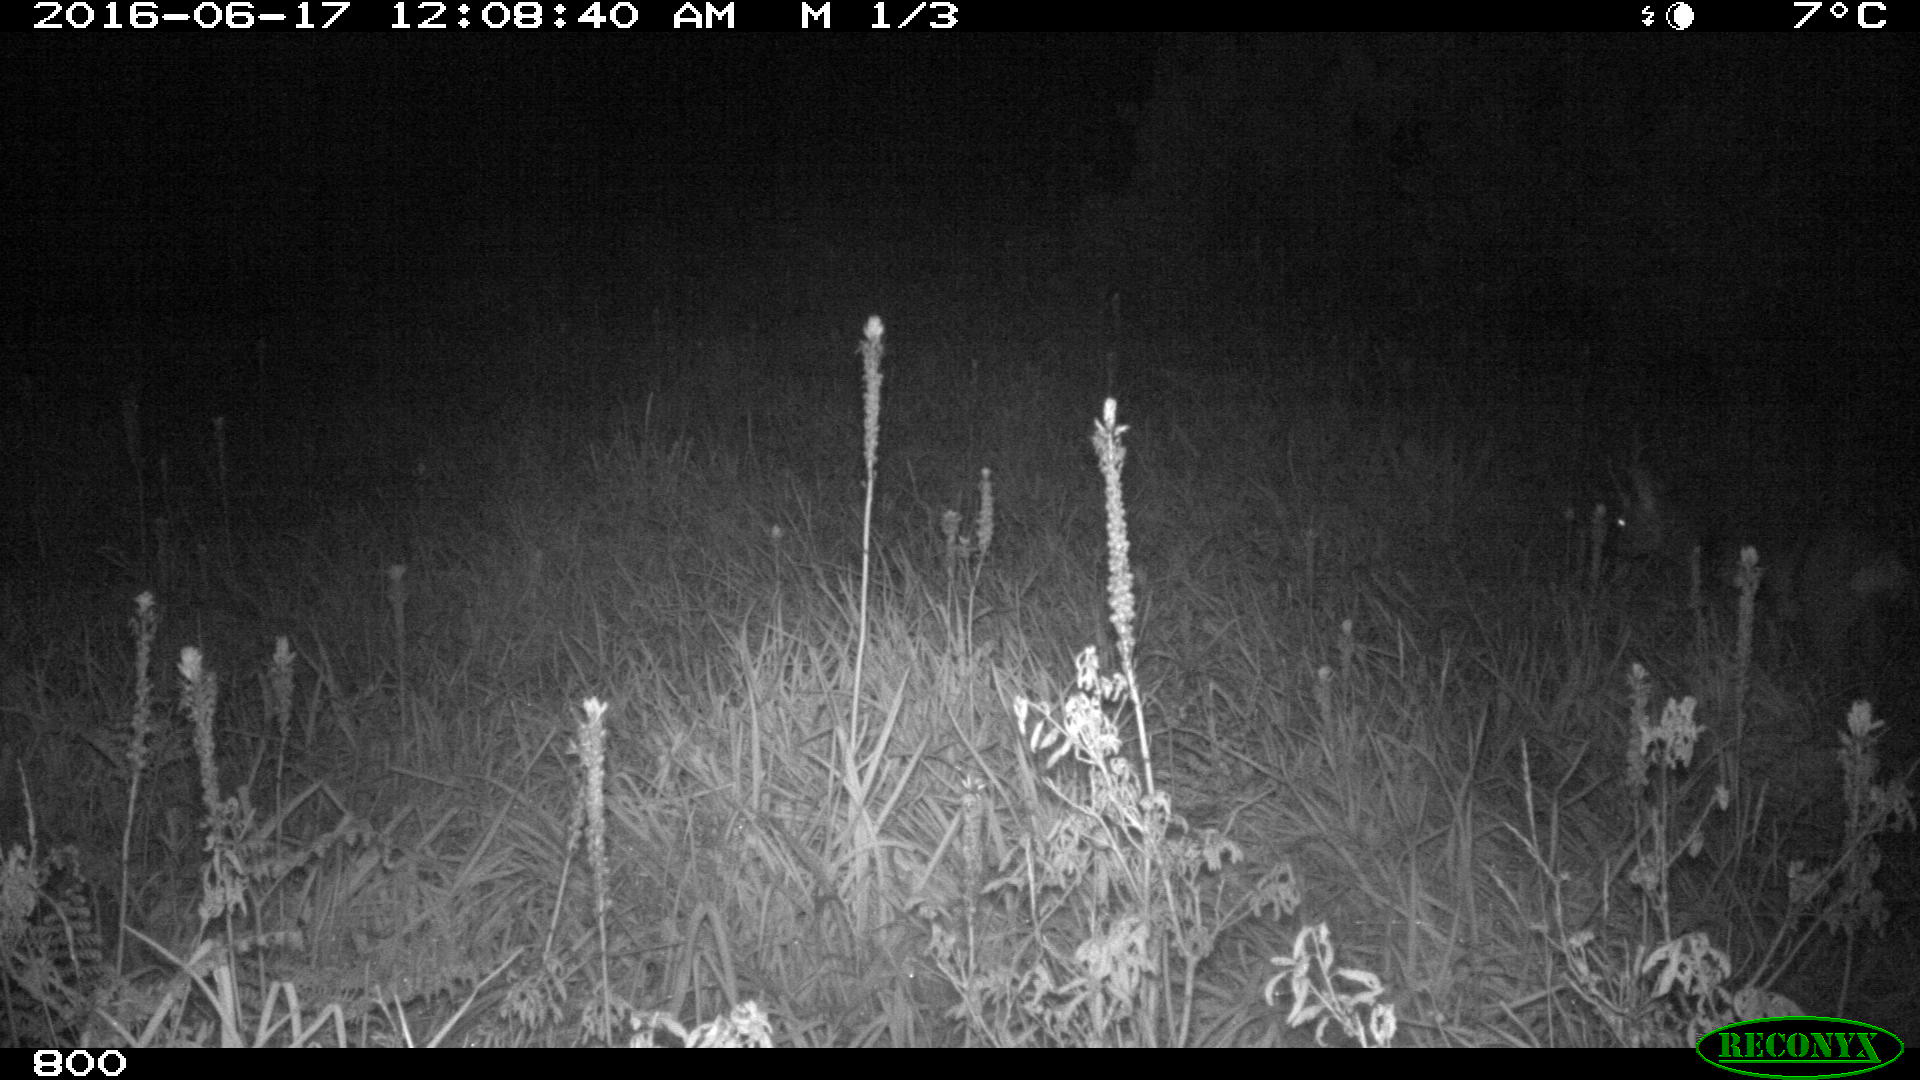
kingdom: Animalia
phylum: Chordata
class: Mammalia
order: Artiodactyla
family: Cervidae
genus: Capreolus
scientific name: Capreolus capreolus
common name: Western roe deer
